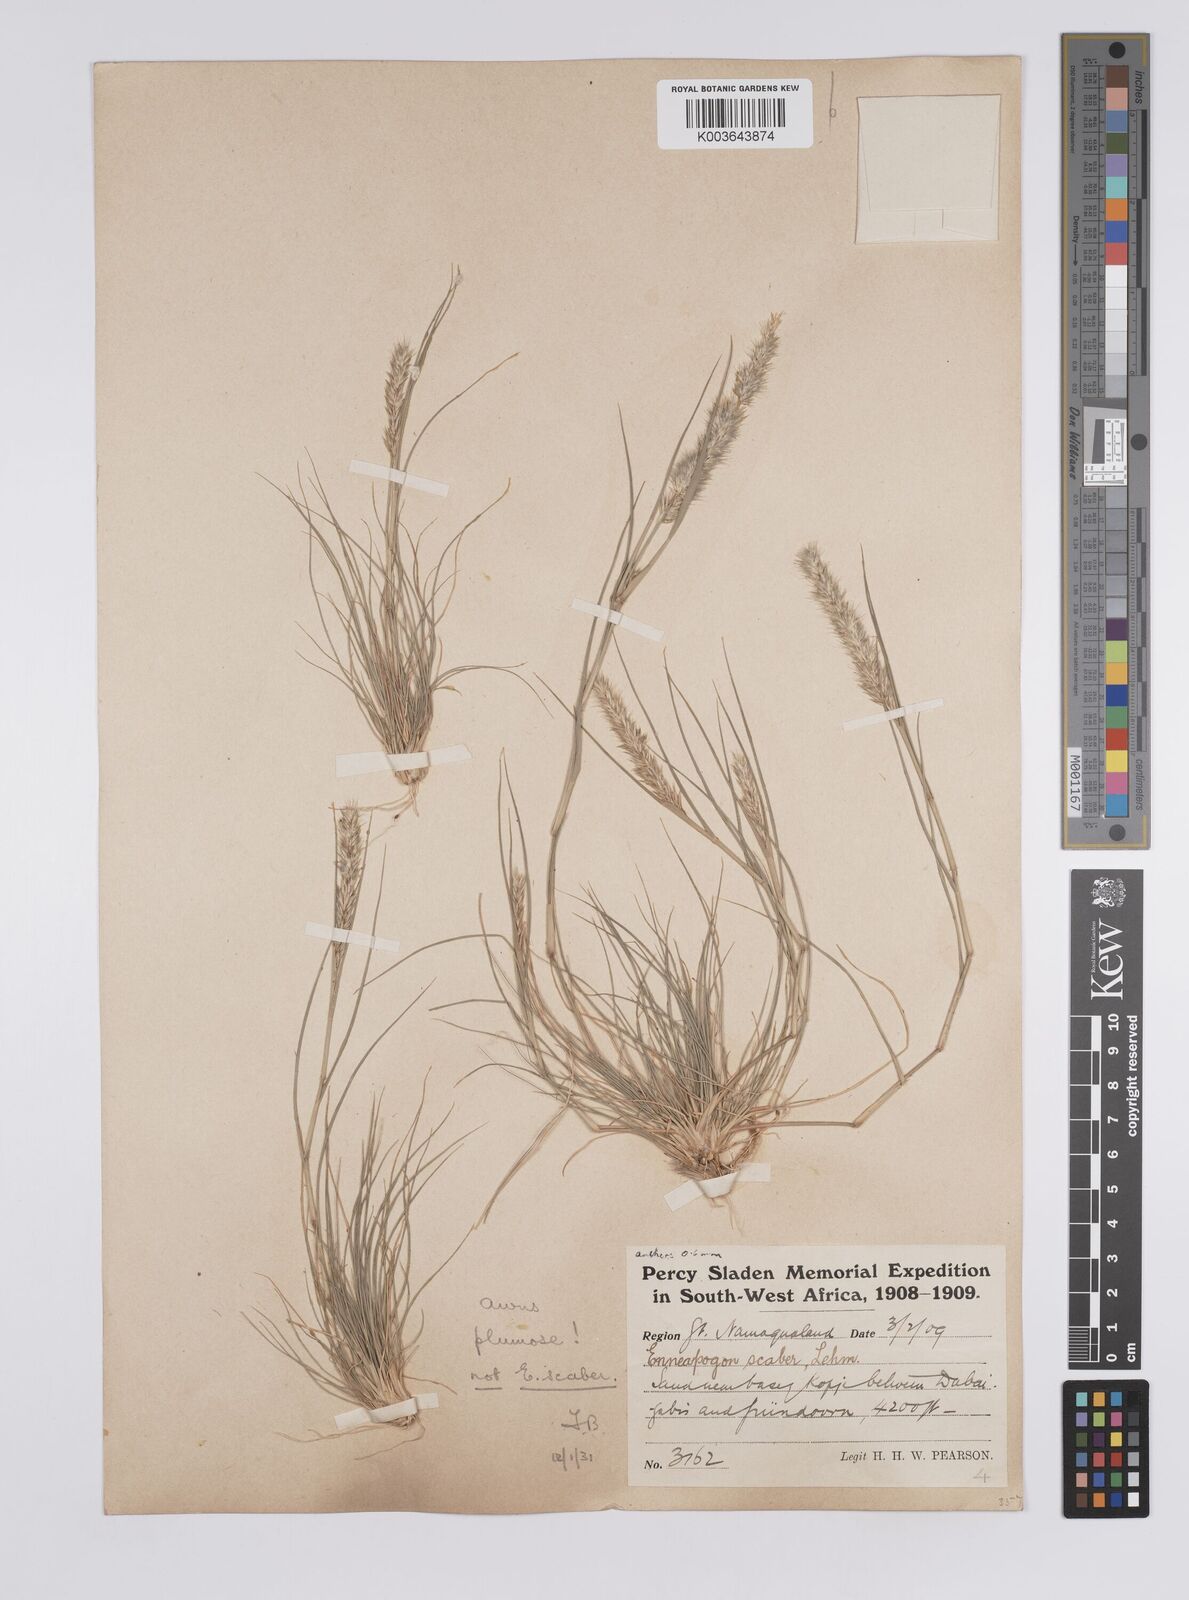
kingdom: Plantae
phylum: Tracheophyta
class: Liliopsida
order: Poales
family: Poaceae
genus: Enneapogon
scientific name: Enneapogon desvauxii
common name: Feather pappus grass
